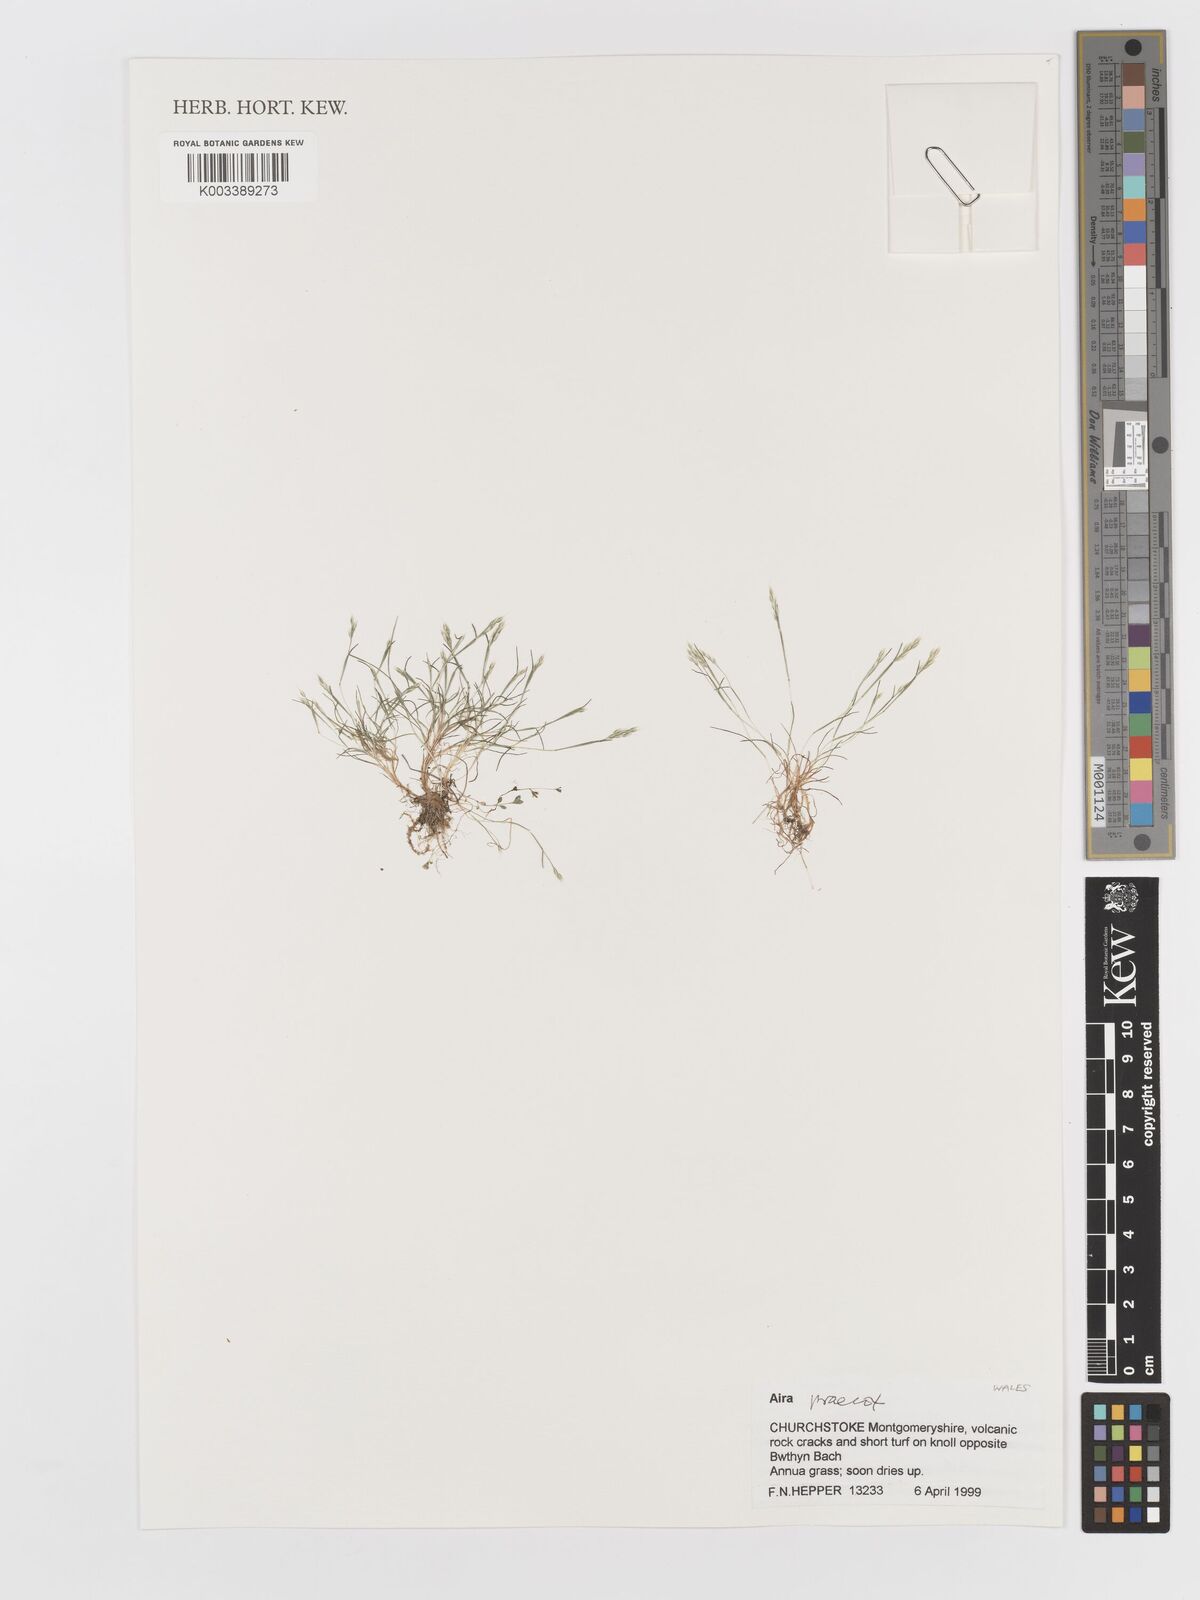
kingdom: Plantae
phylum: Tracheophyta
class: Liliopsida
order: Poales
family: Poaceae
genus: Aira
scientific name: Aira praecox
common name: Early hair-grass
